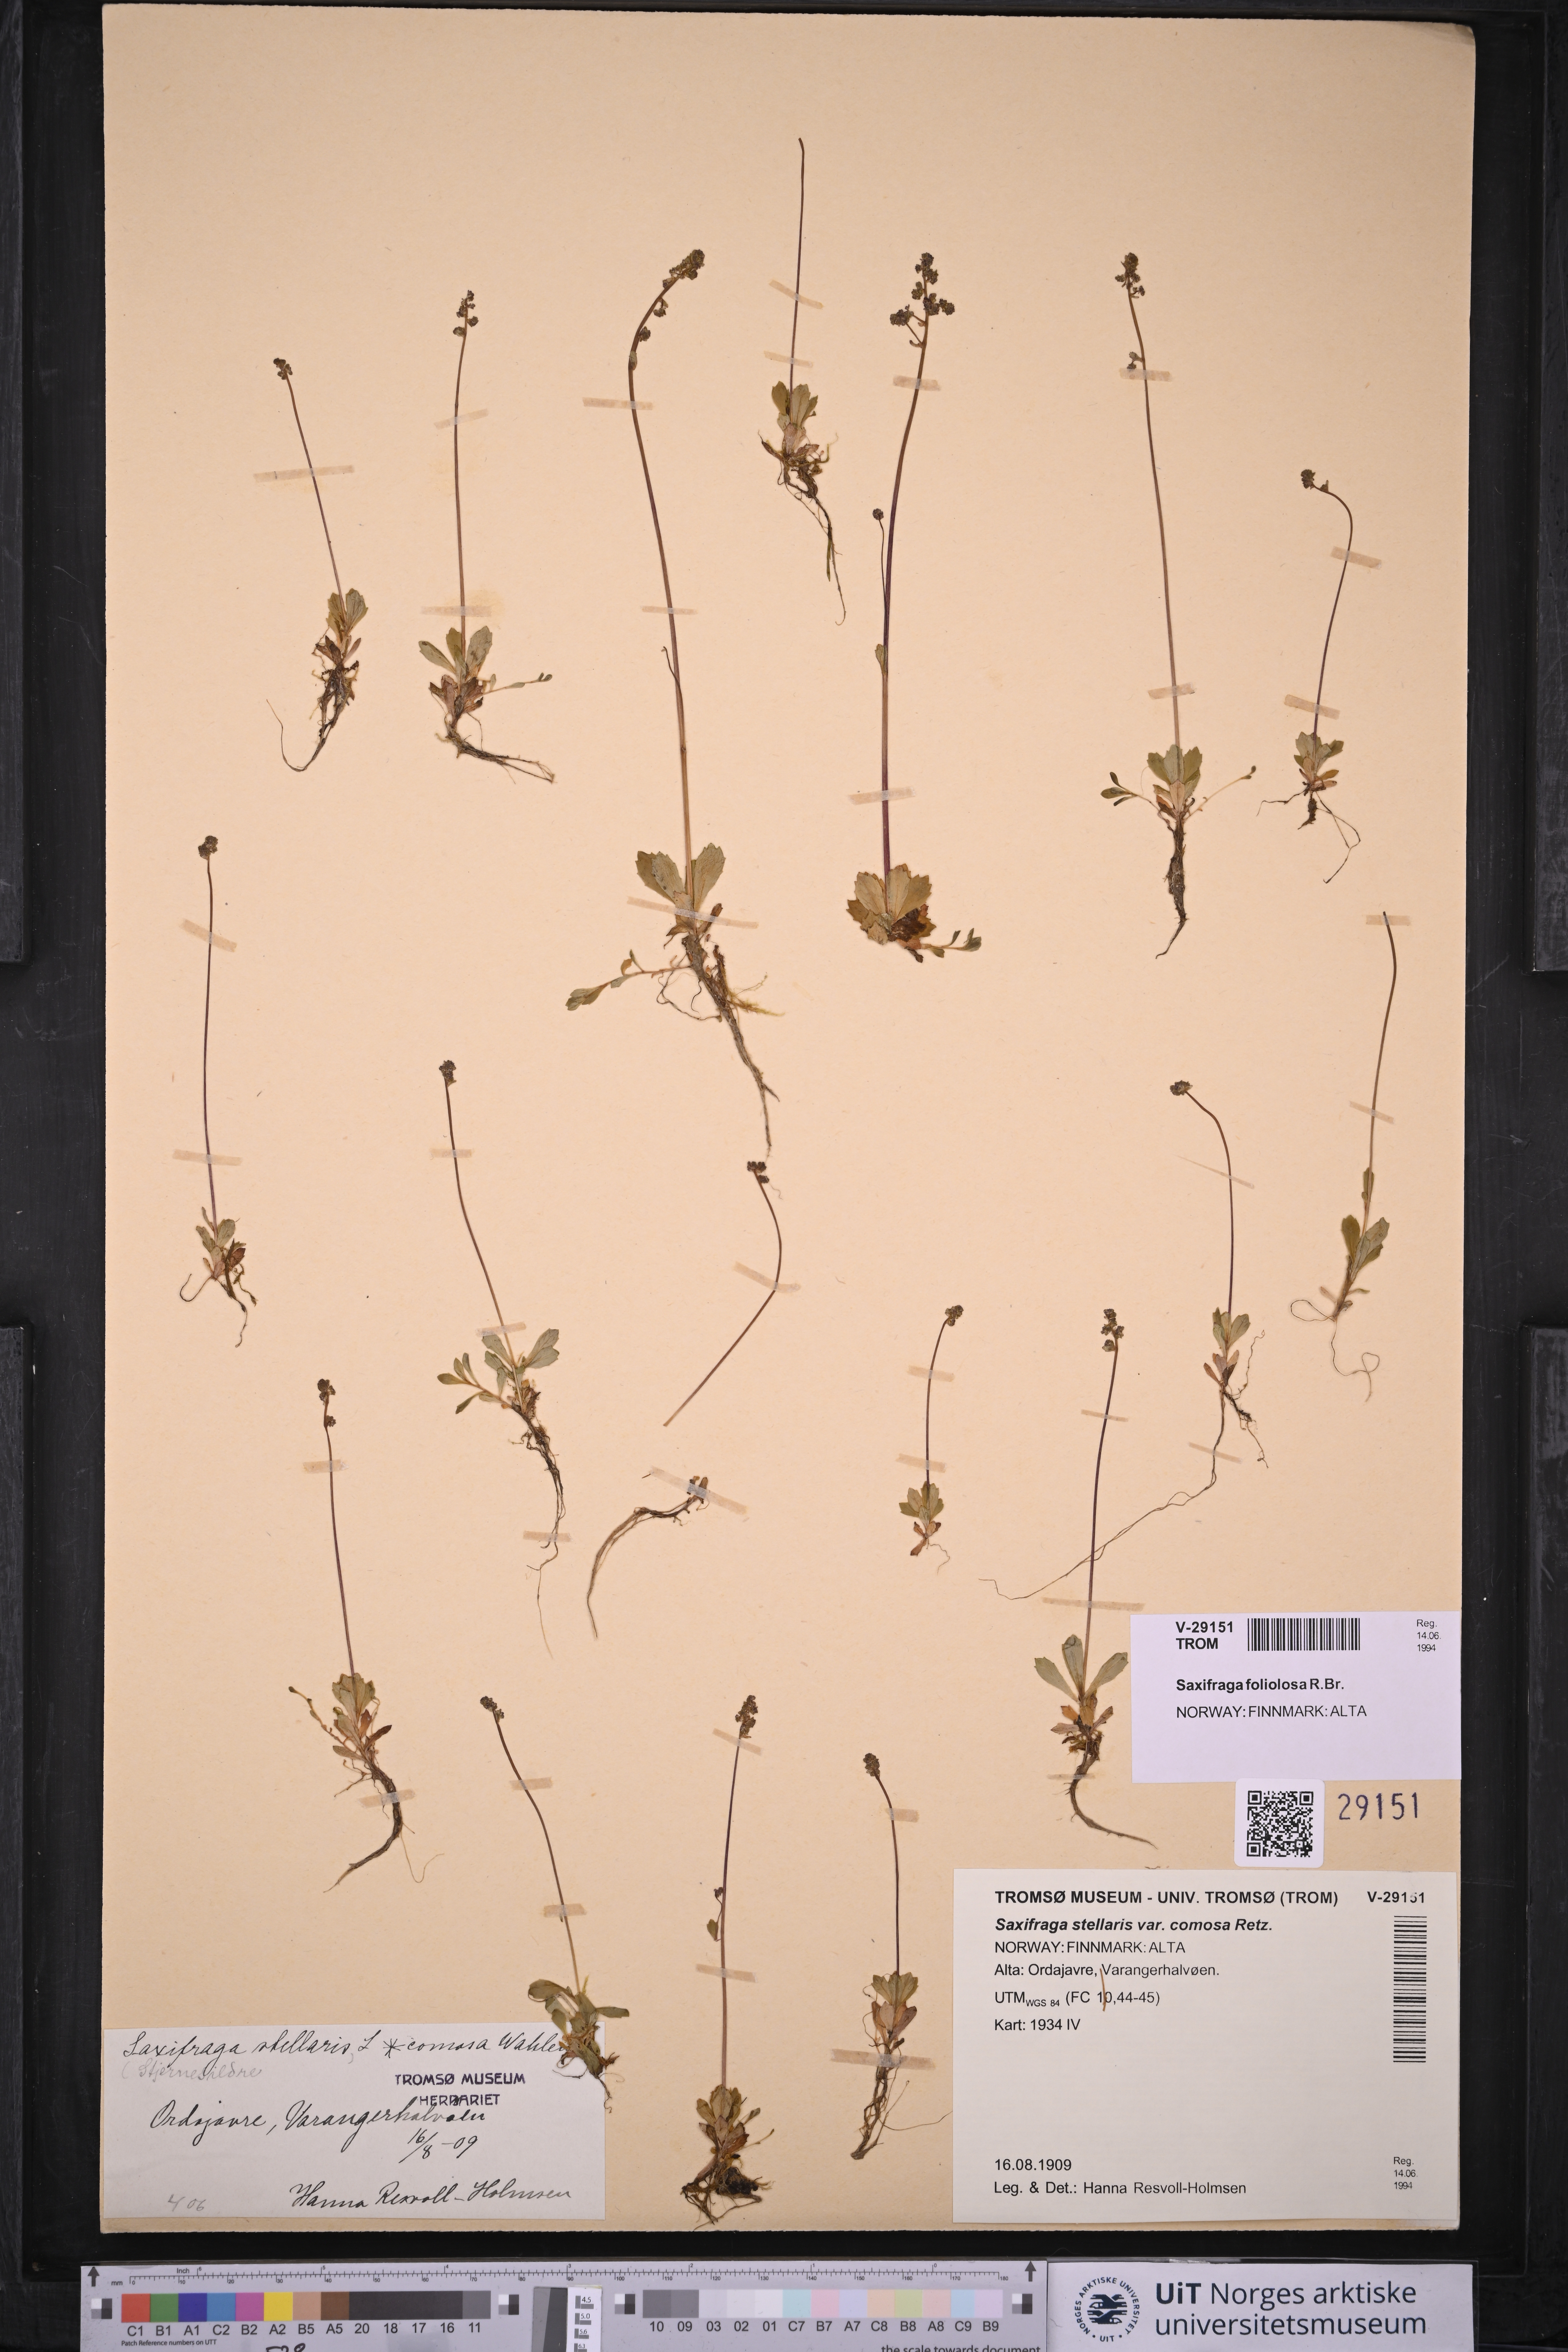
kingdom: Plantae
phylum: Tracheophyta
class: Magnoliopsida
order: Saxifragales
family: Saxifragaceae
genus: Micranthes
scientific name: Micranthes foliolosa
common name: Leafystem saxifrage
